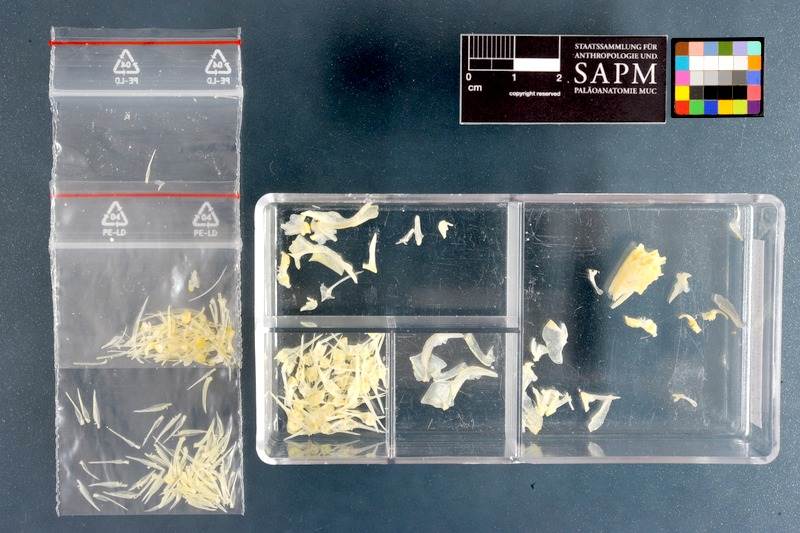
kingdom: Animalia
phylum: Chordata
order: Perciformes
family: Clinidae
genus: Pavoclinus
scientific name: Pavoclinus graminis
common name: Grass klipfish
